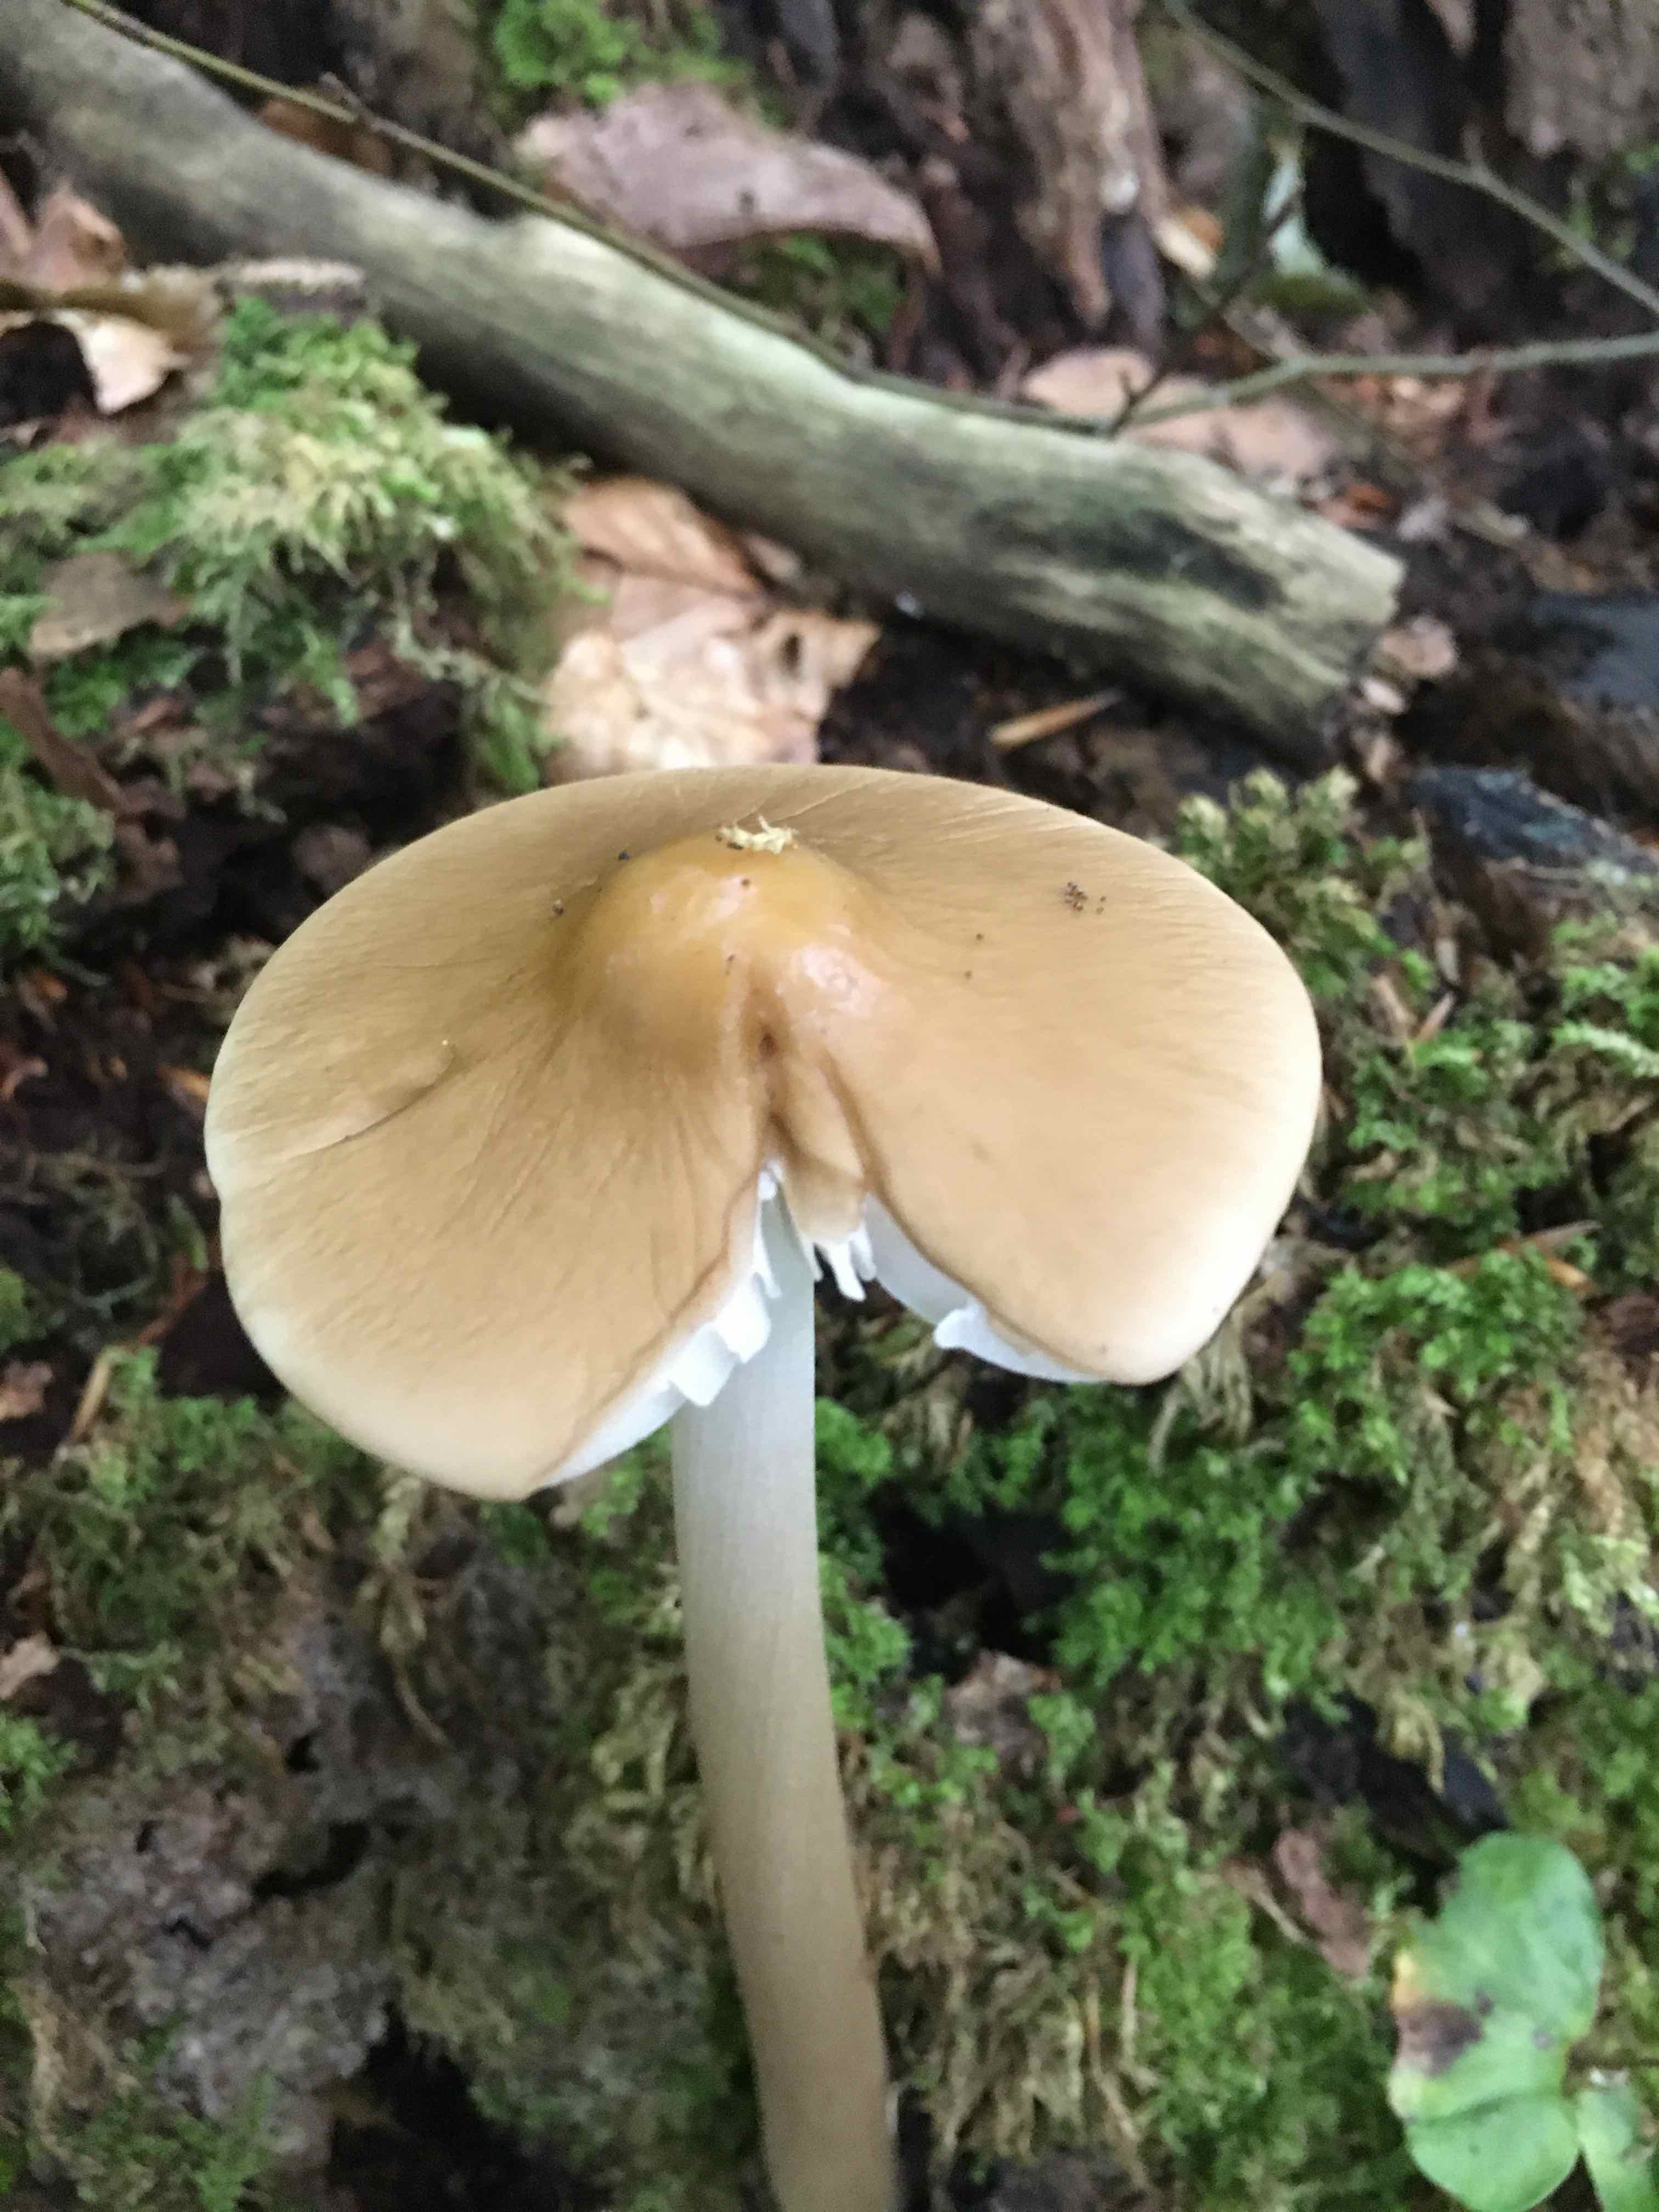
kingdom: Fungi
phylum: Basidiomycota
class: Agaricomycetes
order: Agaricales
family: Physalacriaceae
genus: Hymenopellis
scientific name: Hymenopellis radicata
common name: almindelig pælerodshat
